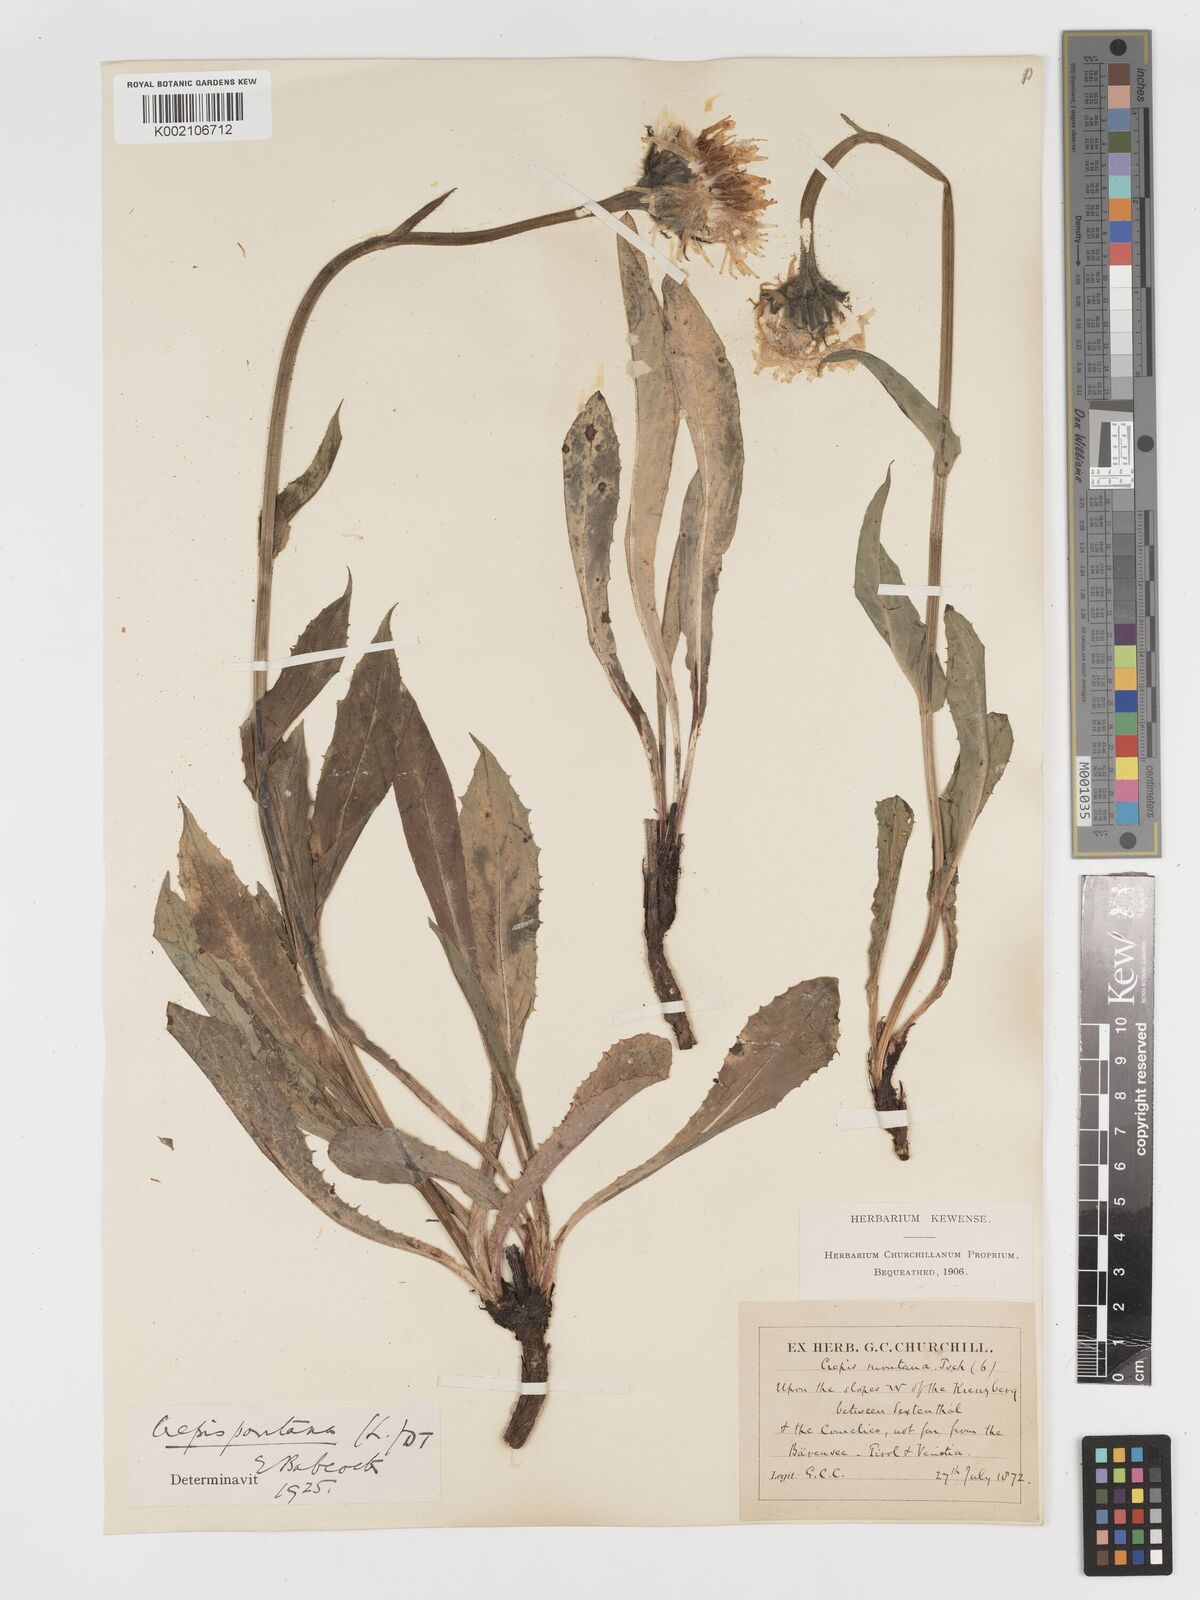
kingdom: Plantae
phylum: Tracheophyta
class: Magnoliopsida
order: Asterales
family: Asteraceae
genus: Crepis
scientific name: Crepis pontana
